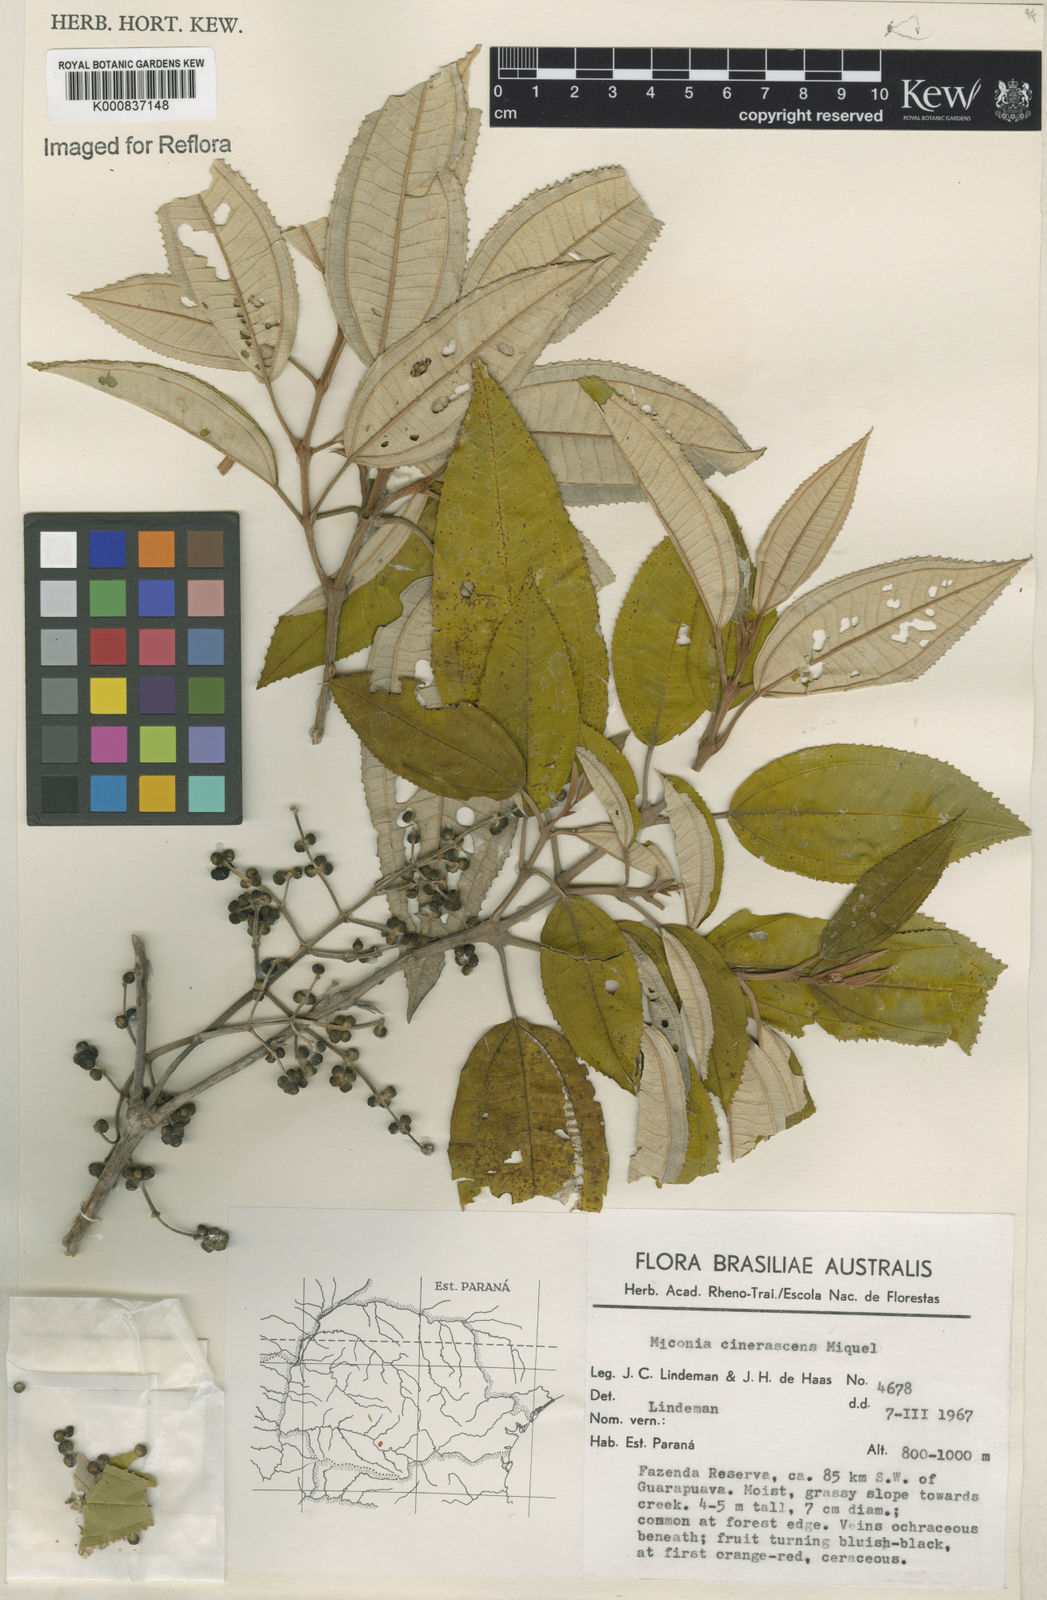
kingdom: Plantae
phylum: Tracheophyta
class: Magnoliopsida
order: Myrtales
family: Melastomataceae
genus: Miconia
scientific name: Miconia cinerascens
